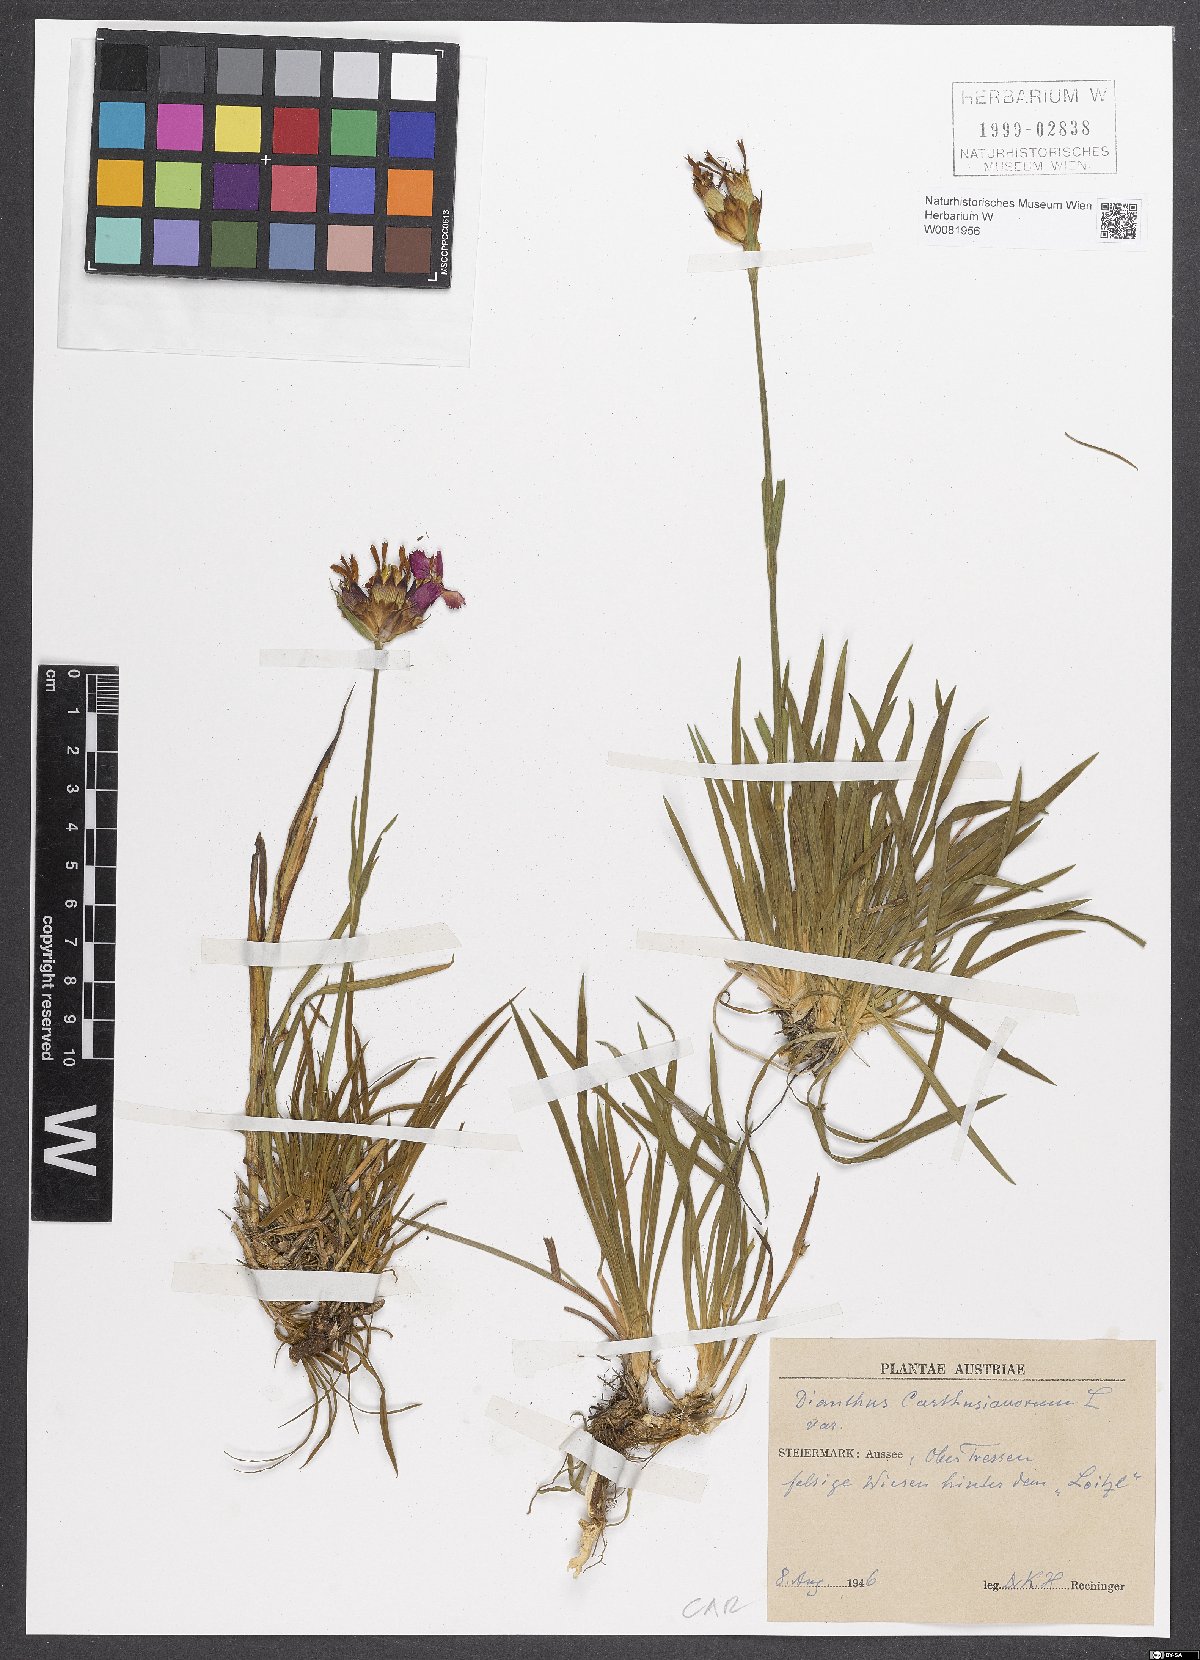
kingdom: Plantae
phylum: Tracheophyta
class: Magnoliopsida
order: Caryophyllales
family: Caryophyllaceae
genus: Dianthus
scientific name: Dianthus carthusianorum
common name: Carthusian pink
